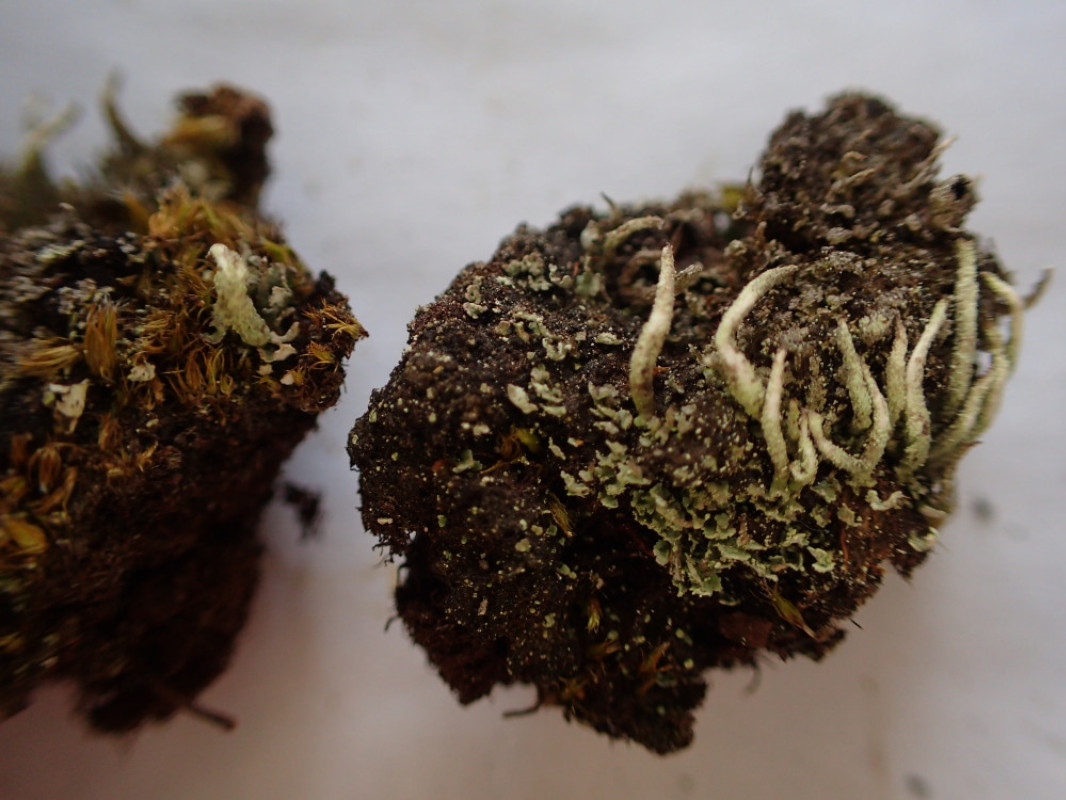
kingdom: Fungi
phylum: Ascomycota
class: Lecanoromycetes
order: Lecanorales
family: Cladoniaceae
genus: Cladonia
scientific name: Cladonia coniocraea
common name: træfods-bægerlav
